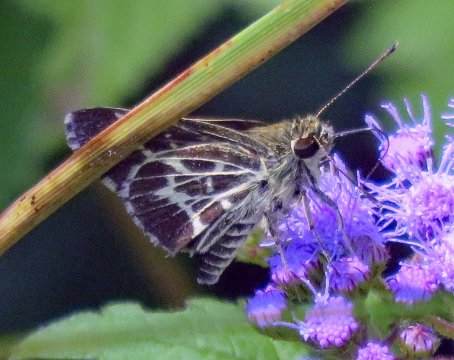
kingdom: Animalia
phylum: Arthropoda
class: Insecta
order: Lepidoptera
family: Hesperiidae
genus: Mastor
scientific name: Mastor aesculapius
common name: Lace-winged Roadside-Skipper
